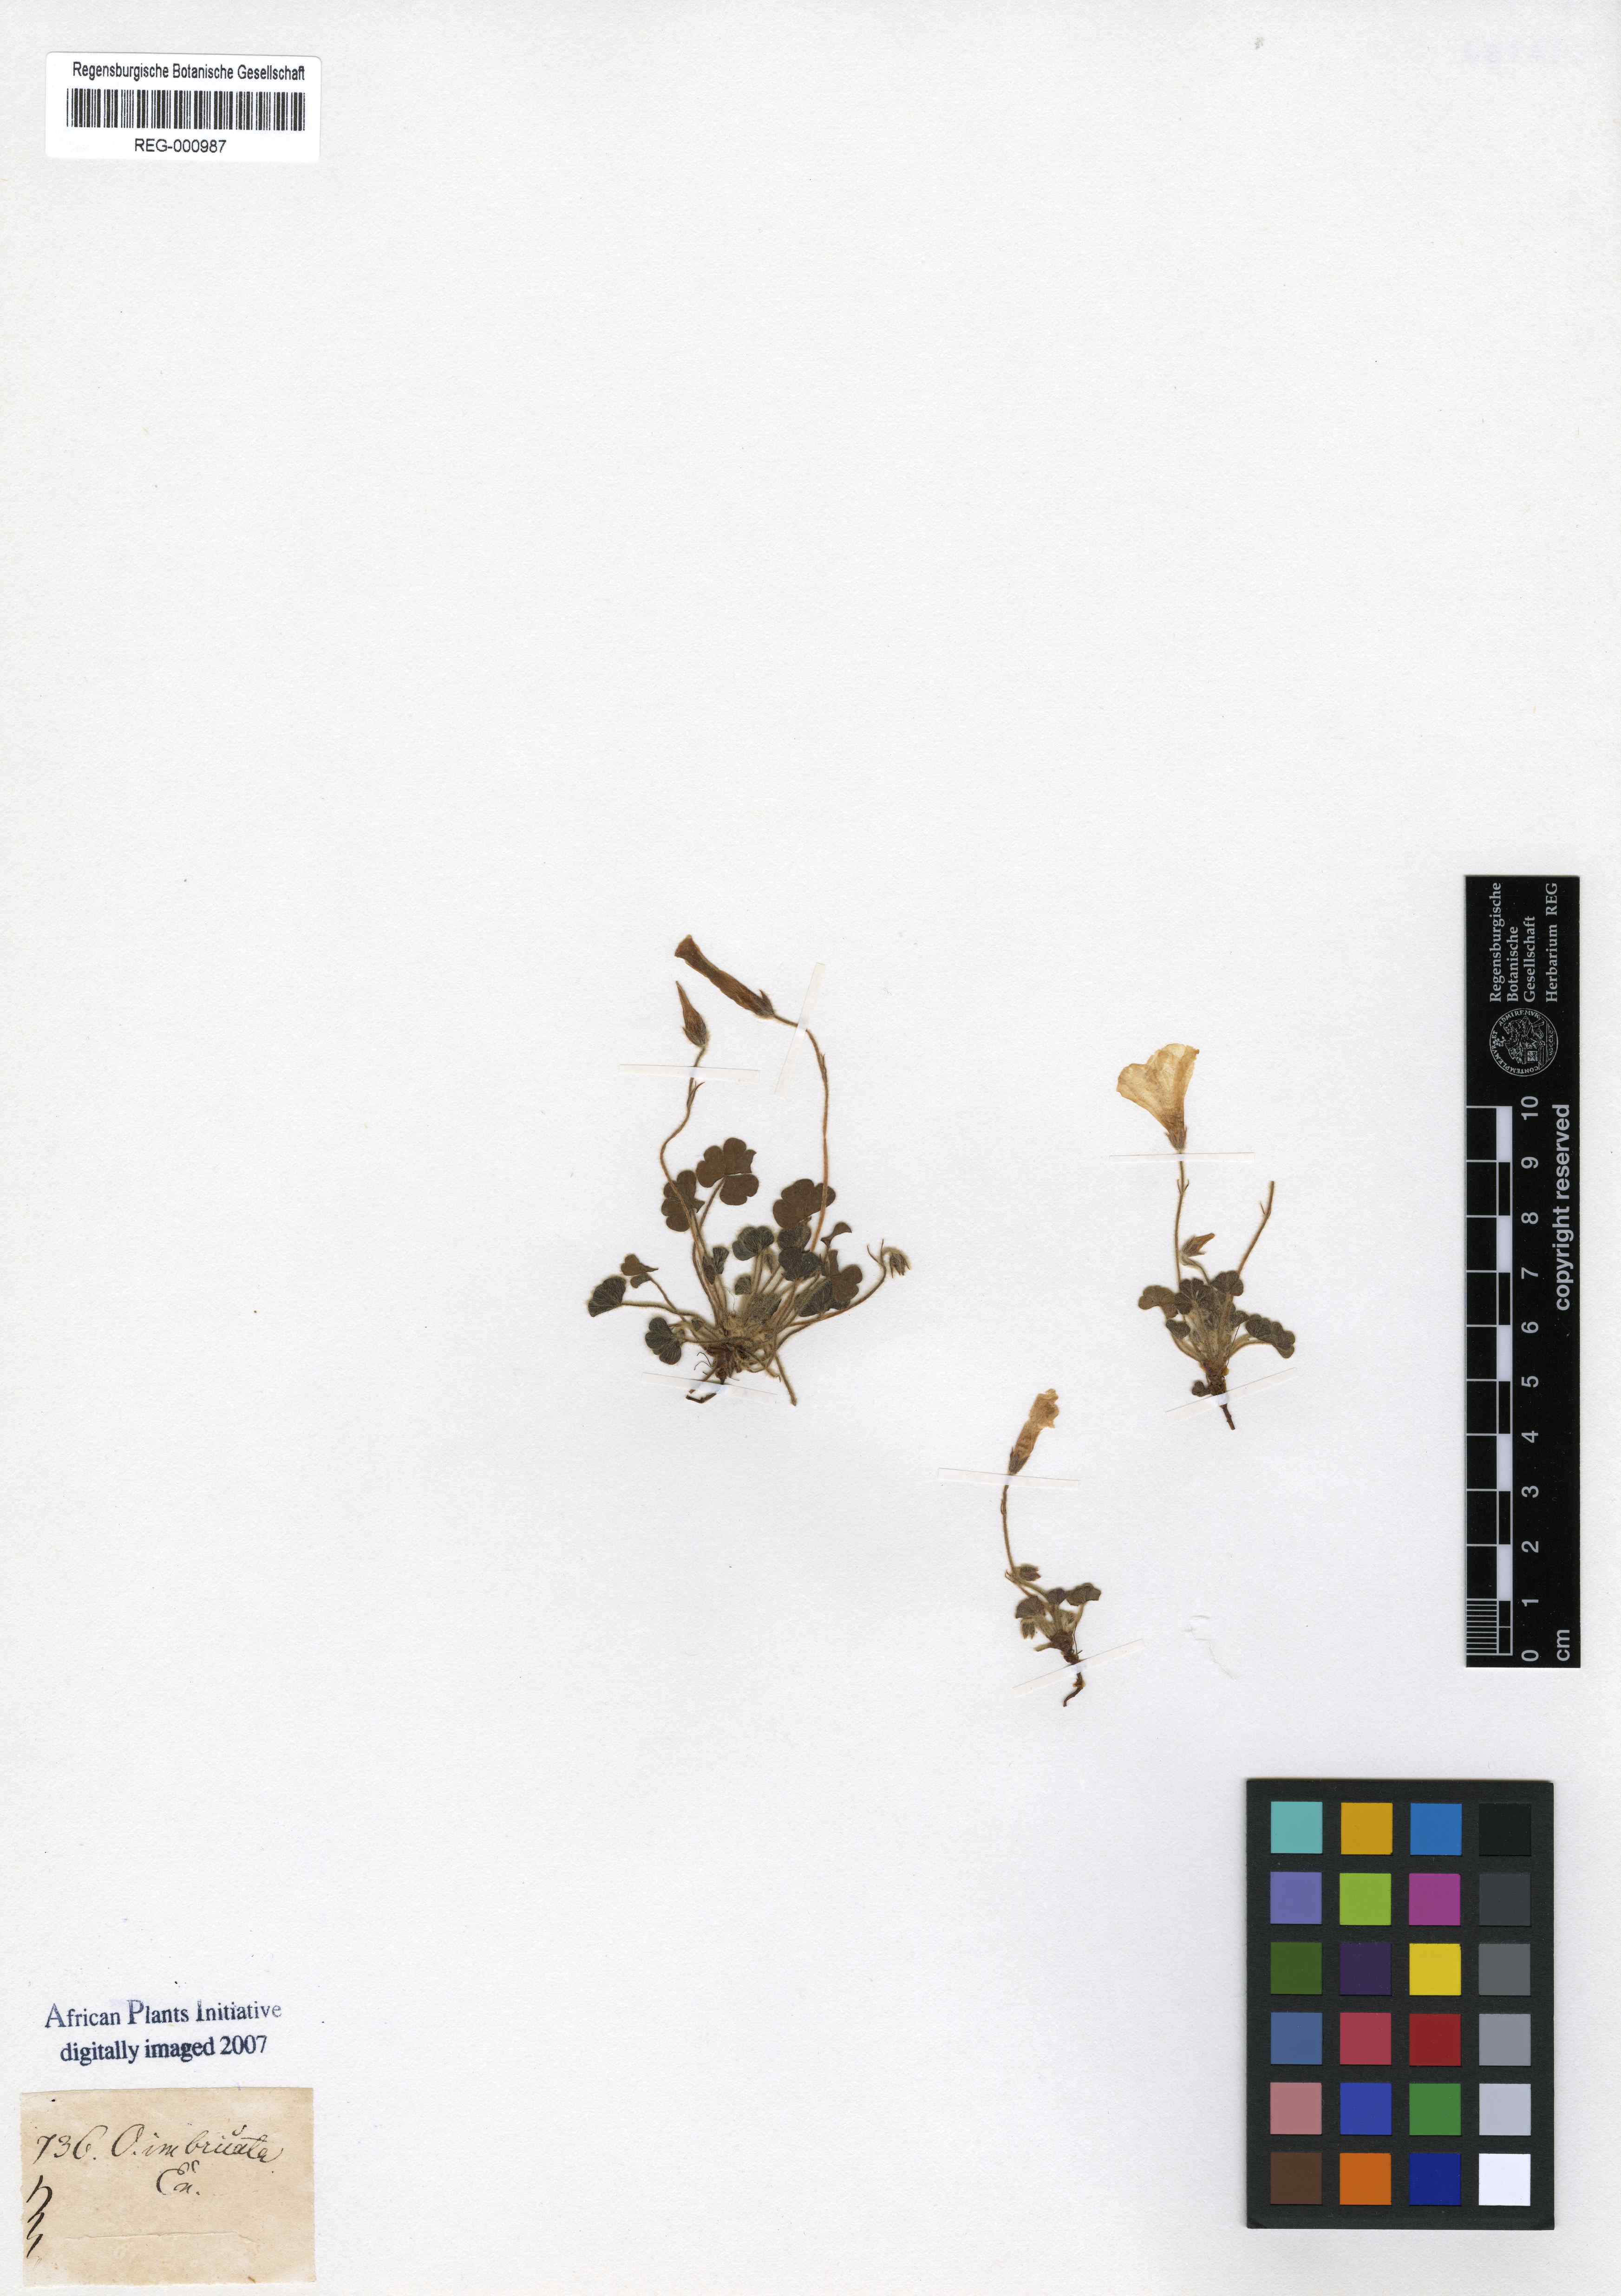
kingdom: Plantae
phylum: Tracheophyta
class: Magnoliopsida
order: Oxalidales
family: Oxalidaceae
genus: Oxalis
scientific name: Oxalis imbricata
